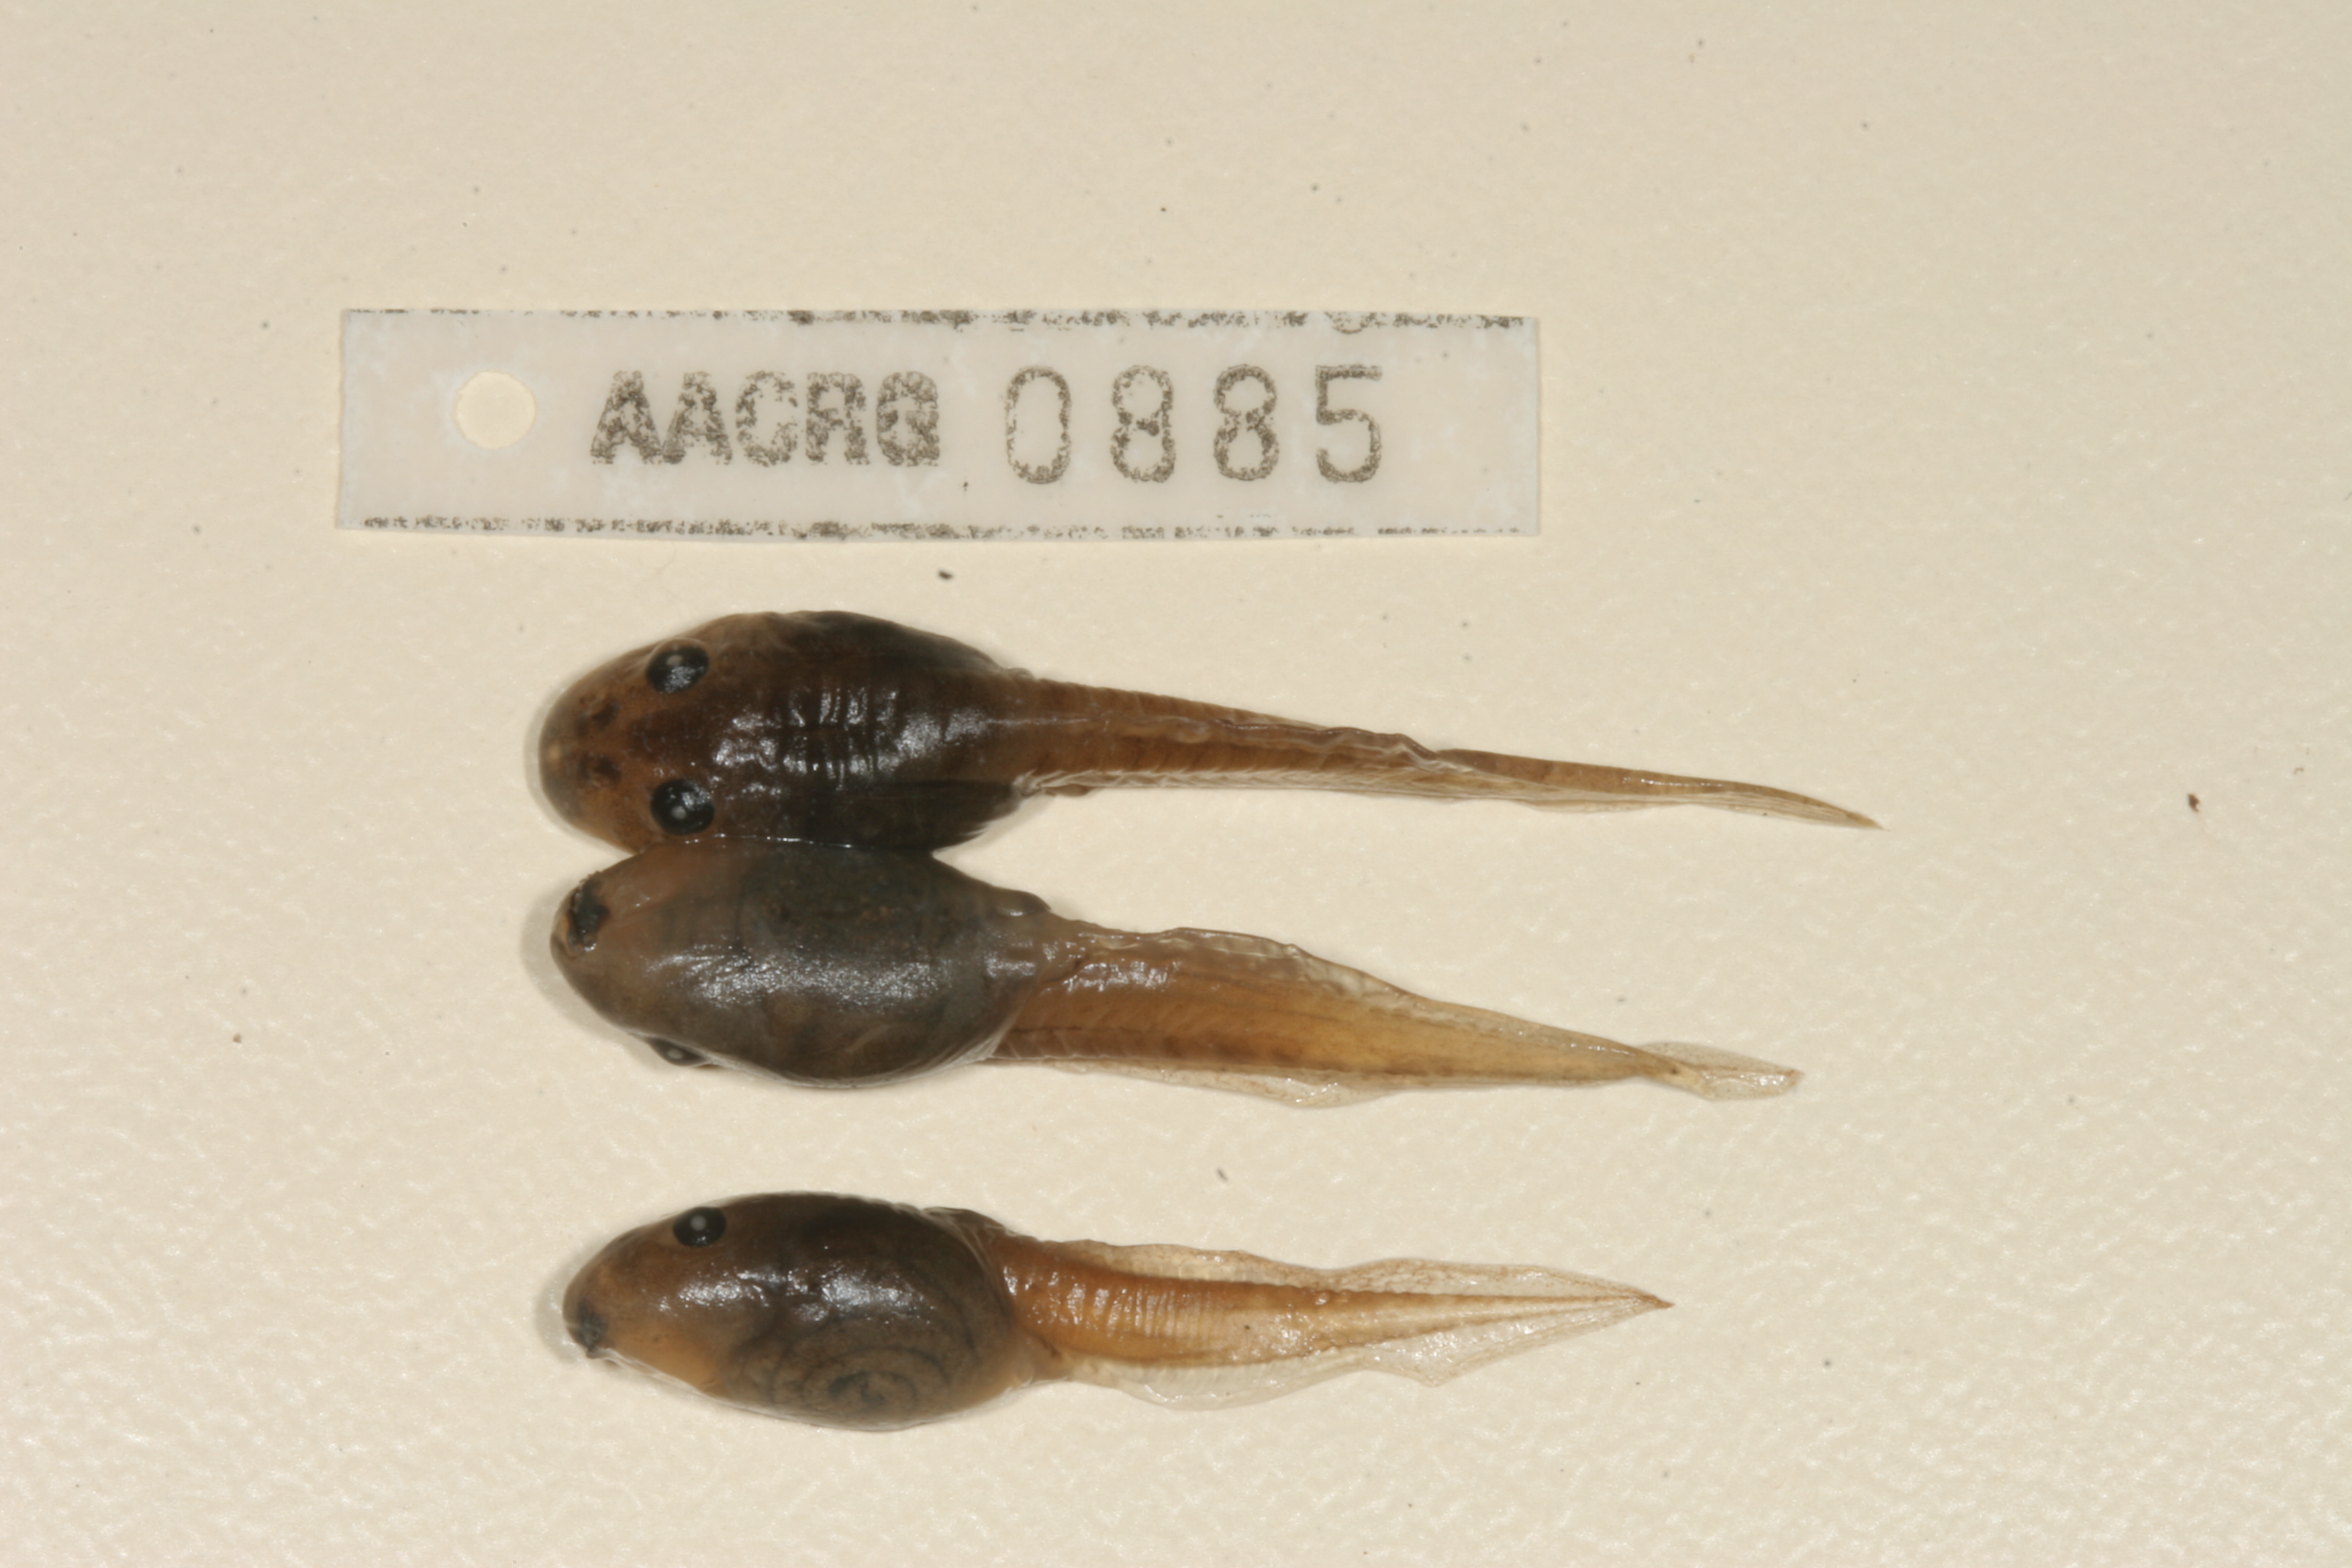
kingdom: Animalia
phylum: Chordata
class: Amphibia
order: Anura
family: Pyxicephalidae
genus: Strongylopus
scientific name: Strongylopus grayii
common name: Gray's stream frog
